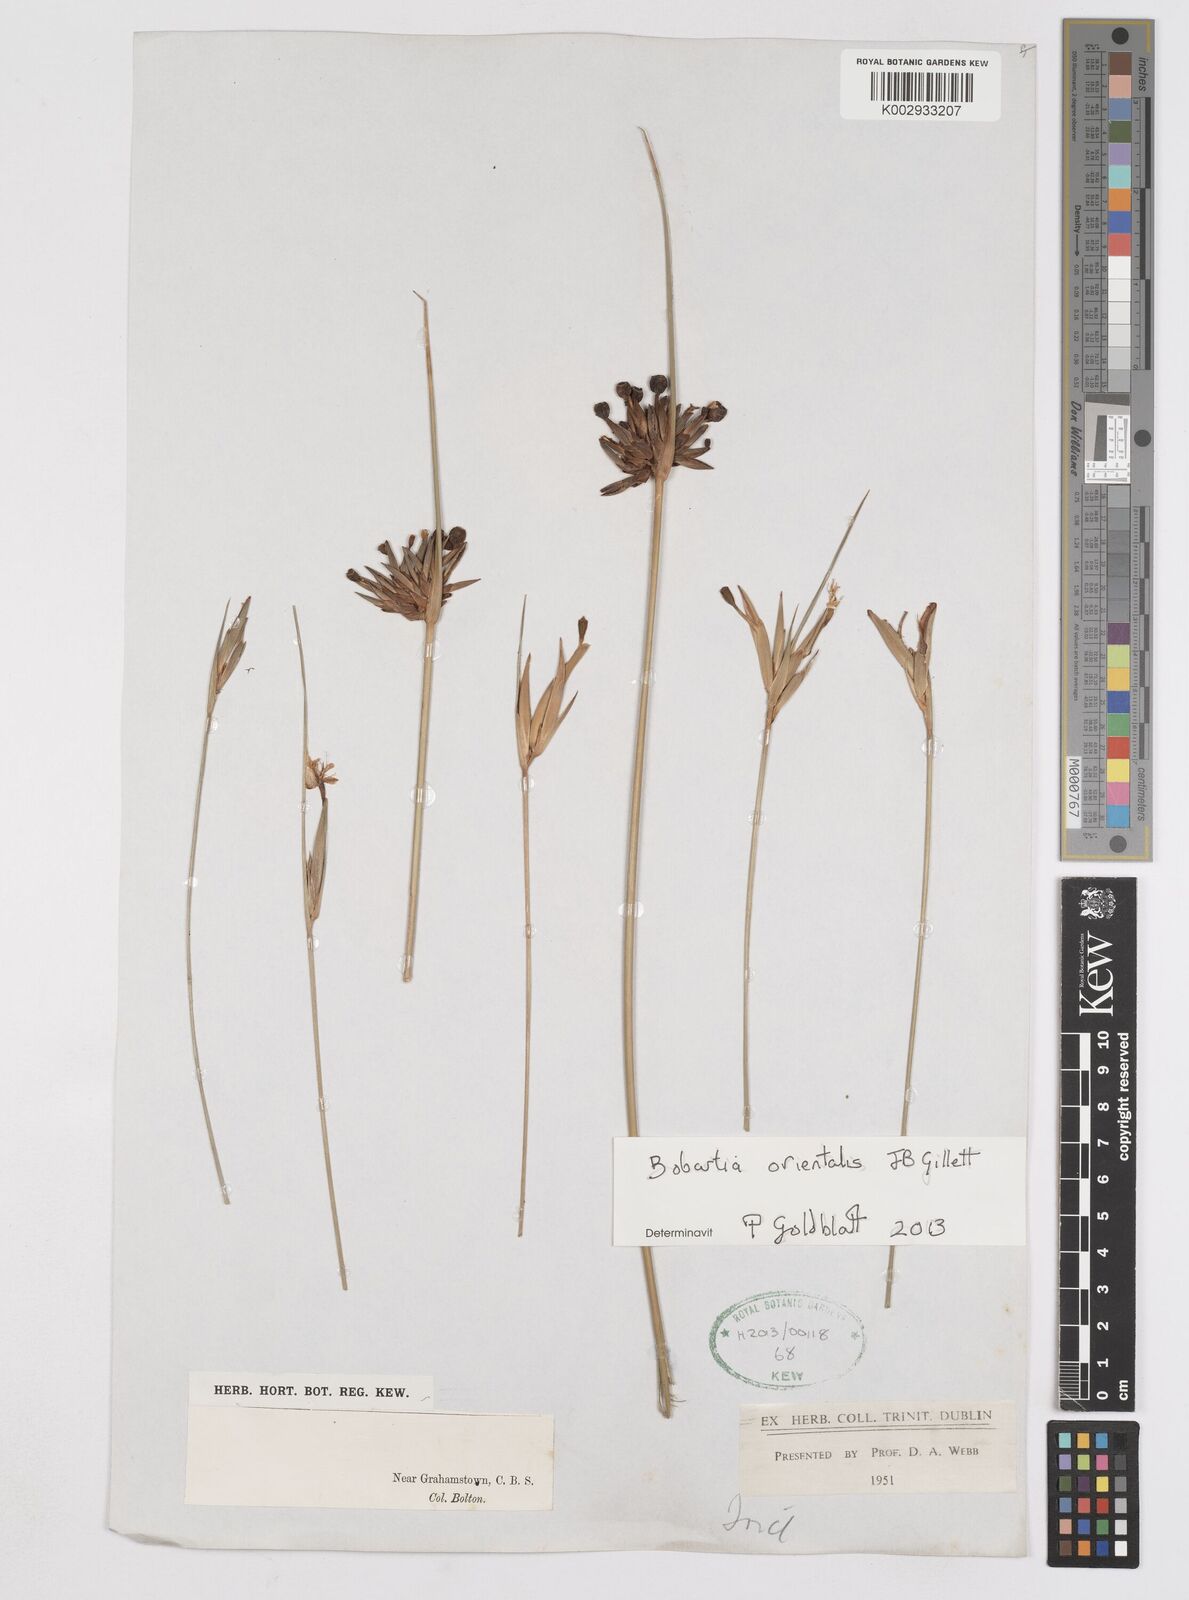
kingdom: Plantae
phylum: Tracheophyta
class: Liliopsida
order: Asparagales
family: Iridaceae
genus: Bobartia
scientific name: Bobartia orientalis
